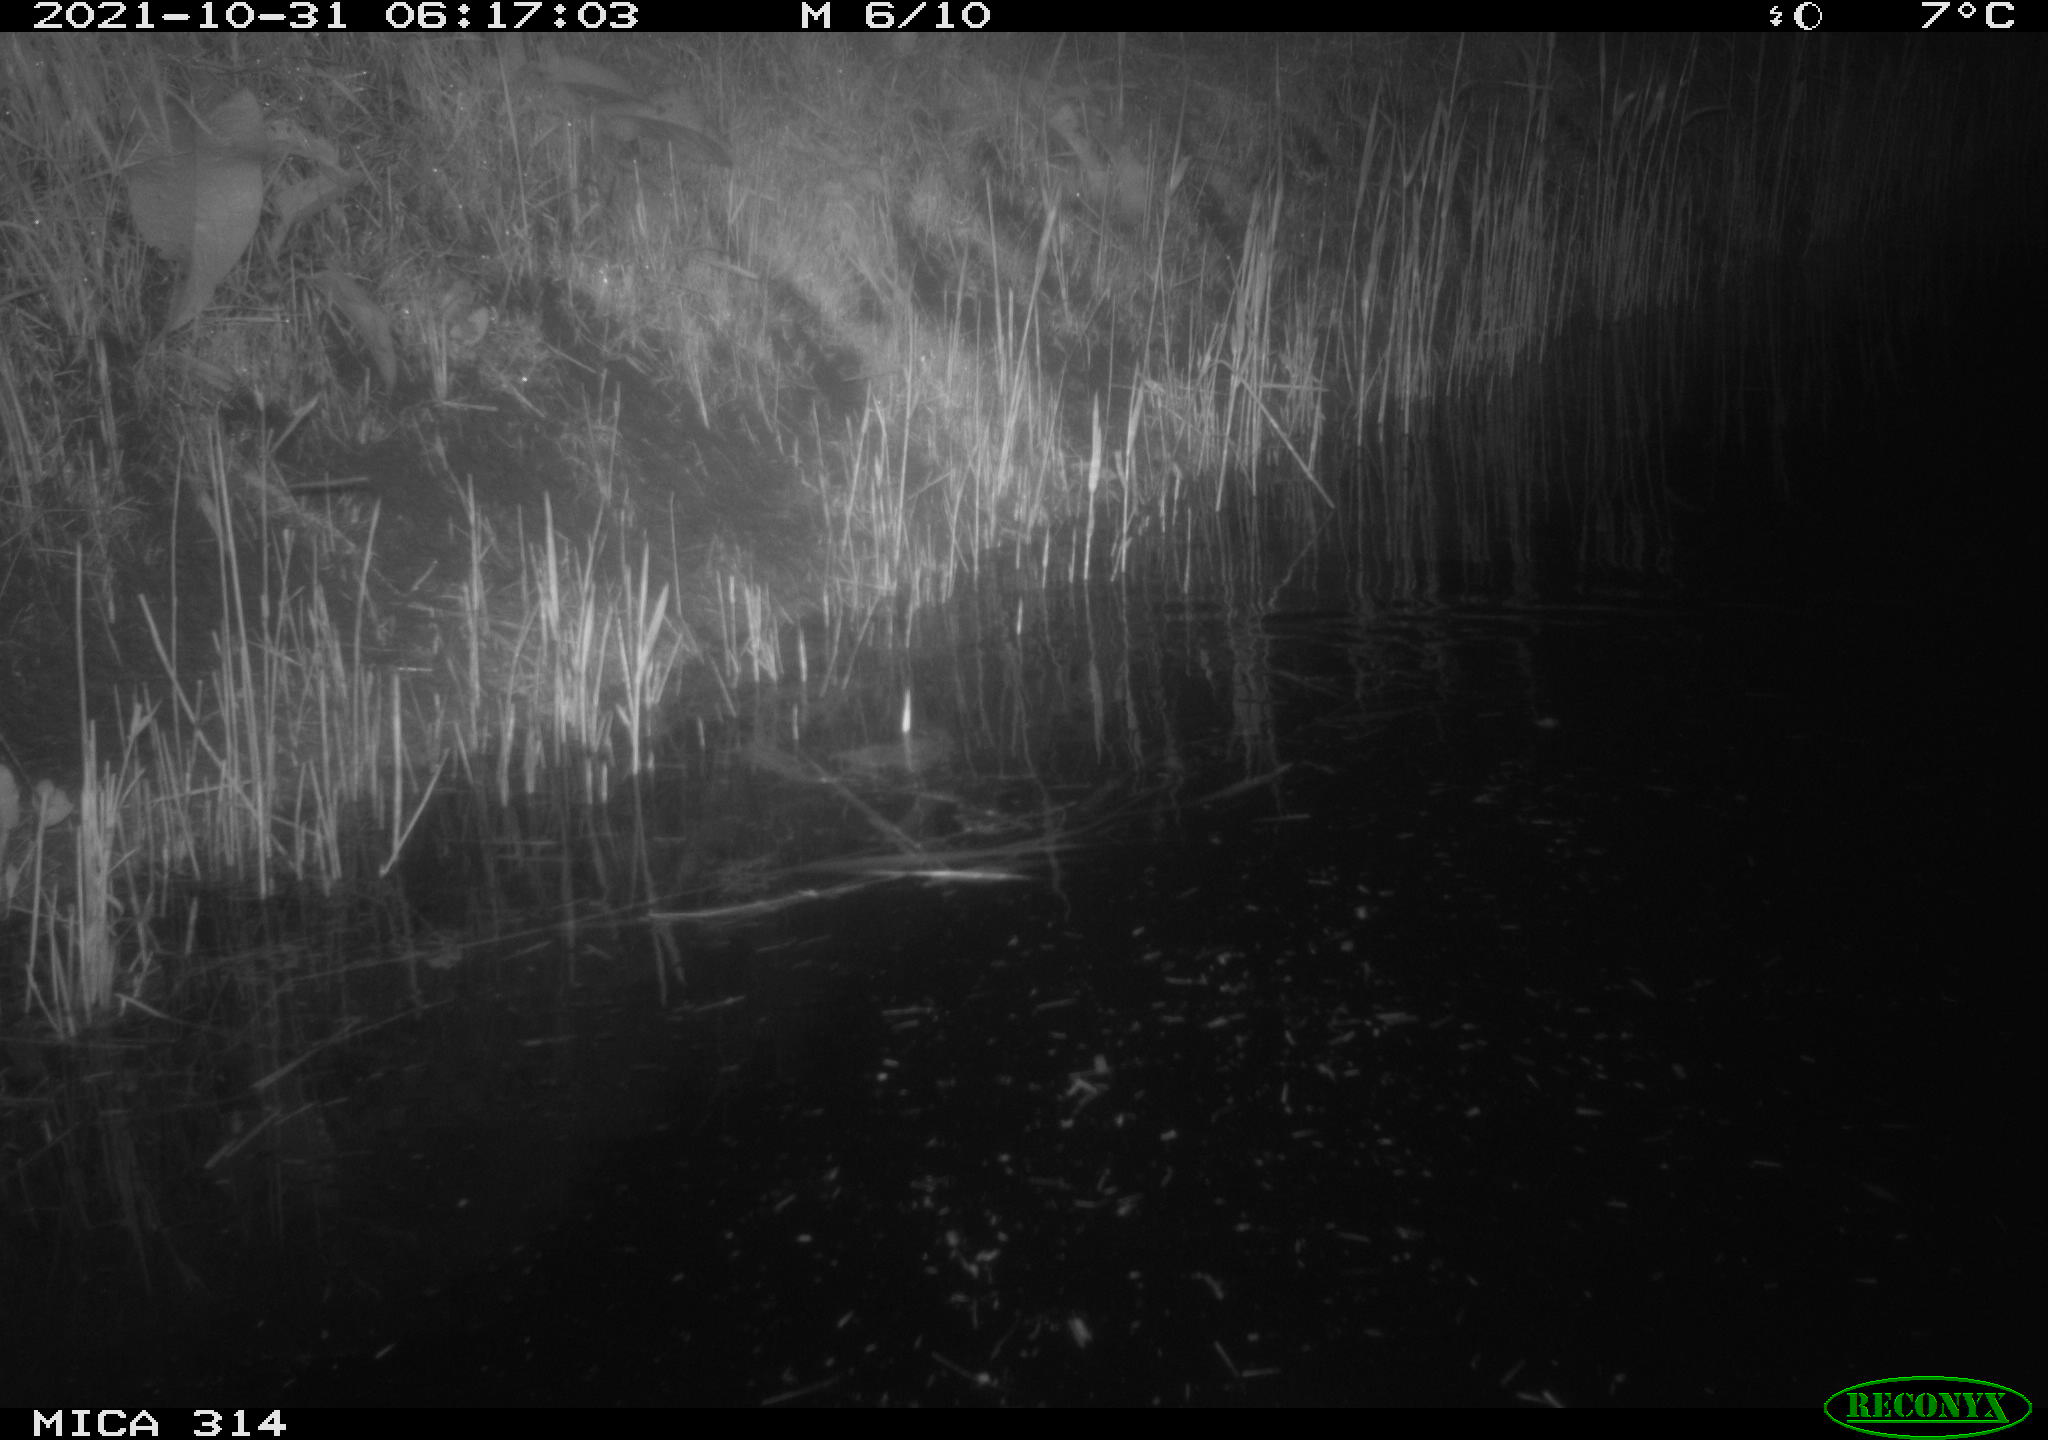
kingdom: Animalia
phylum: Chordata
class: Mammalia
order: Rodentia
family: Muridae
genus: Rattus
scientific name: Rattus norvegicus
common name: Brown rat
